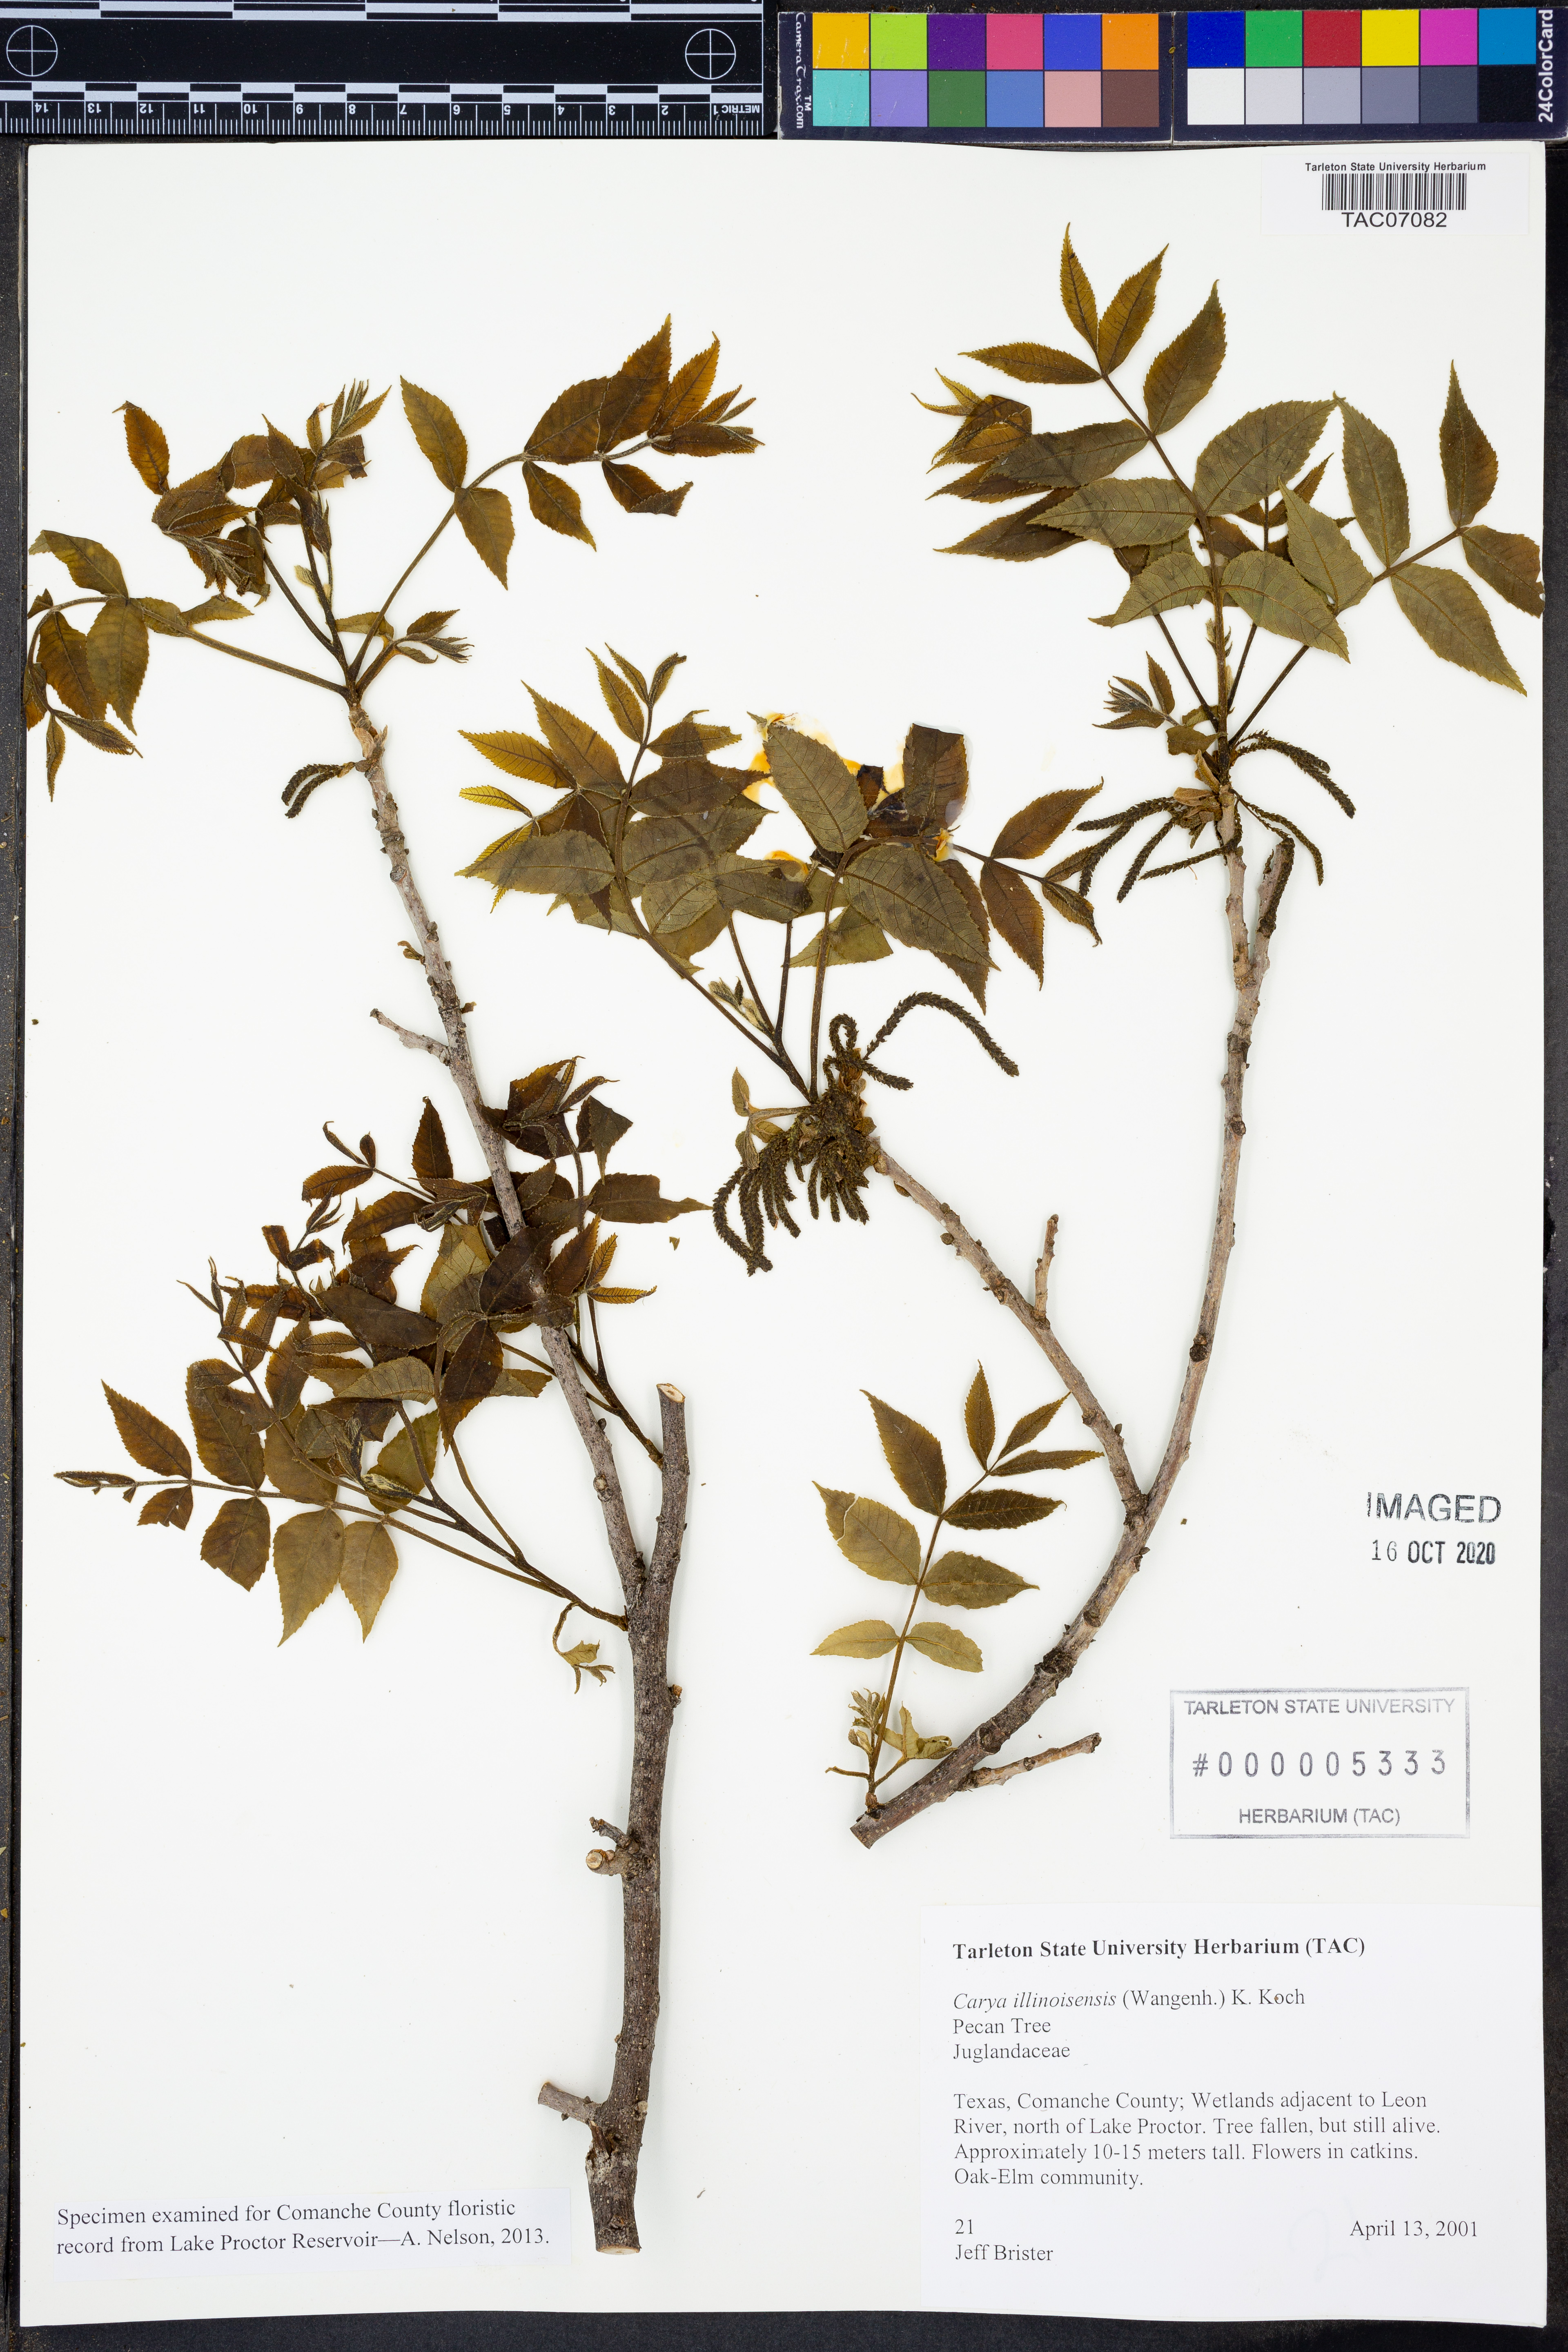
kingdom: Plantae
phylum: Tracheophyta
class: Magnoliopsida
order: Fagales
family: Juglandaceae
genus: Carya
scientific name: Carya illinoinensis
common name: Pecan
